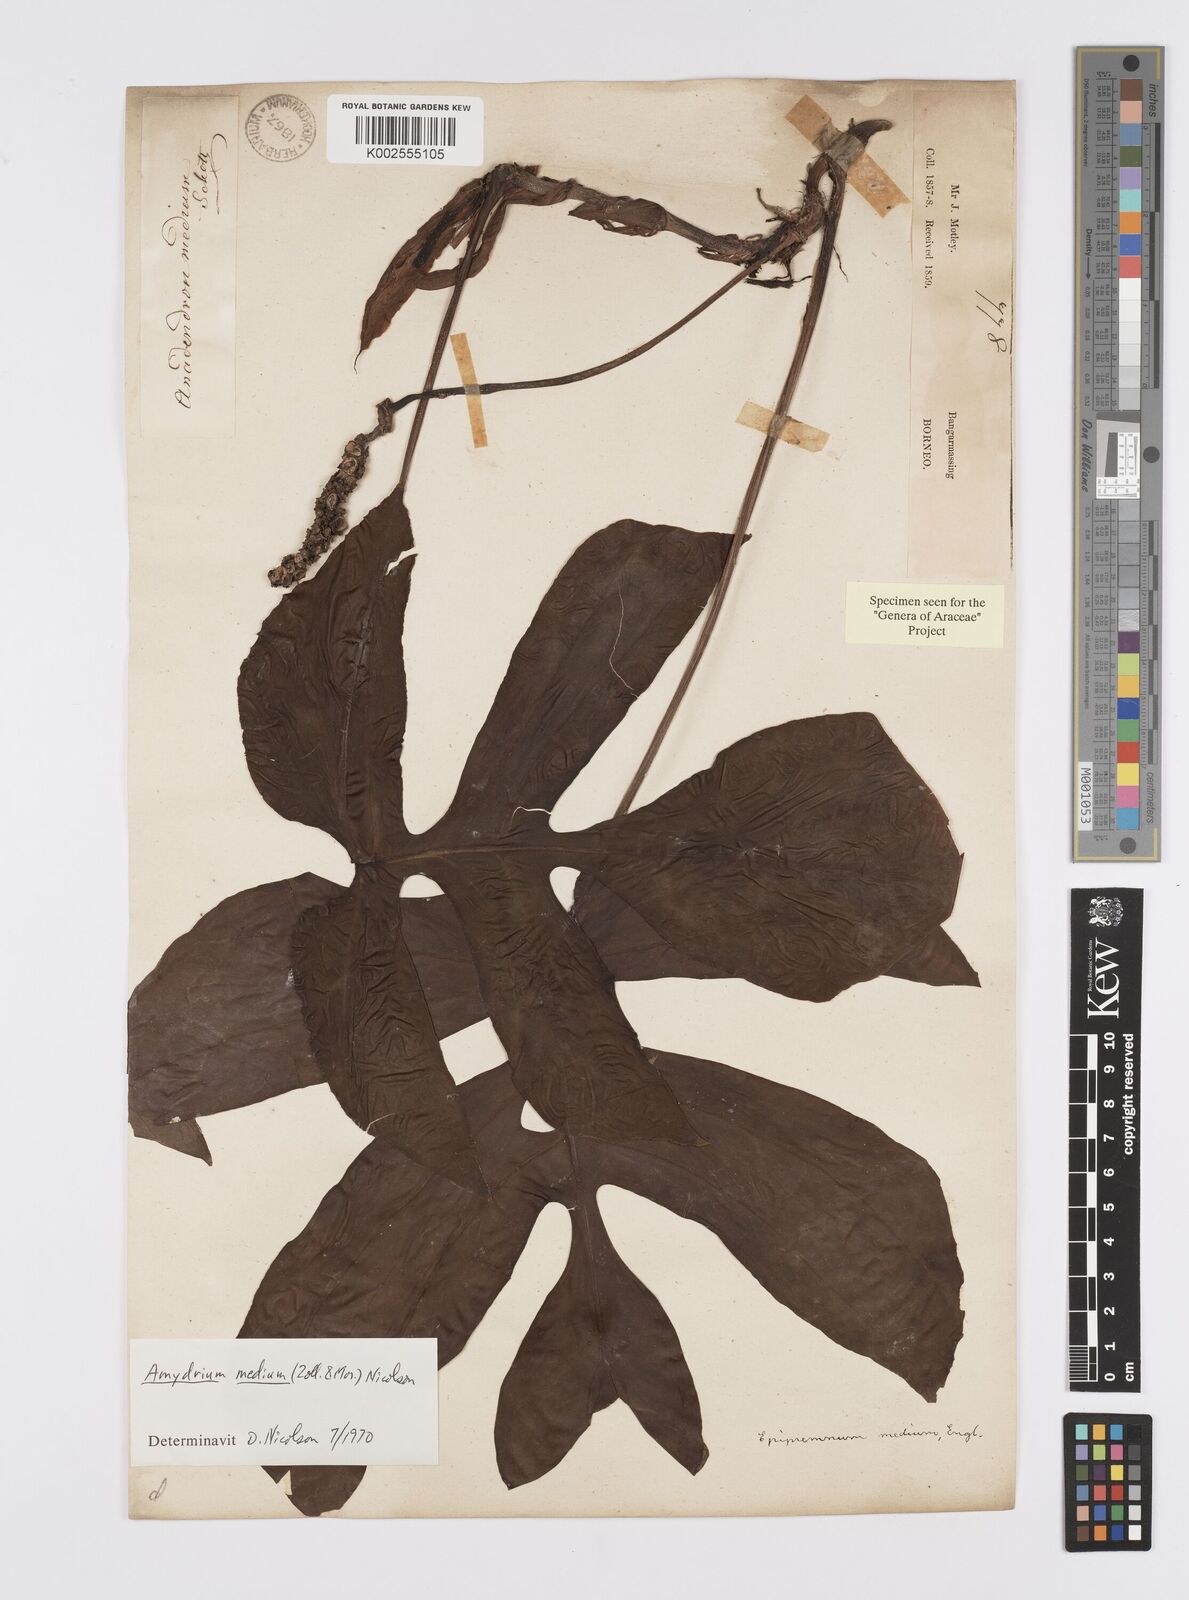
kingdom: Plantae
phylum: Tracheophyta
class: Liliopsida
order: Alismatales
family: Araceae
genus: Amydrium
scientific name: Amydrium medium
